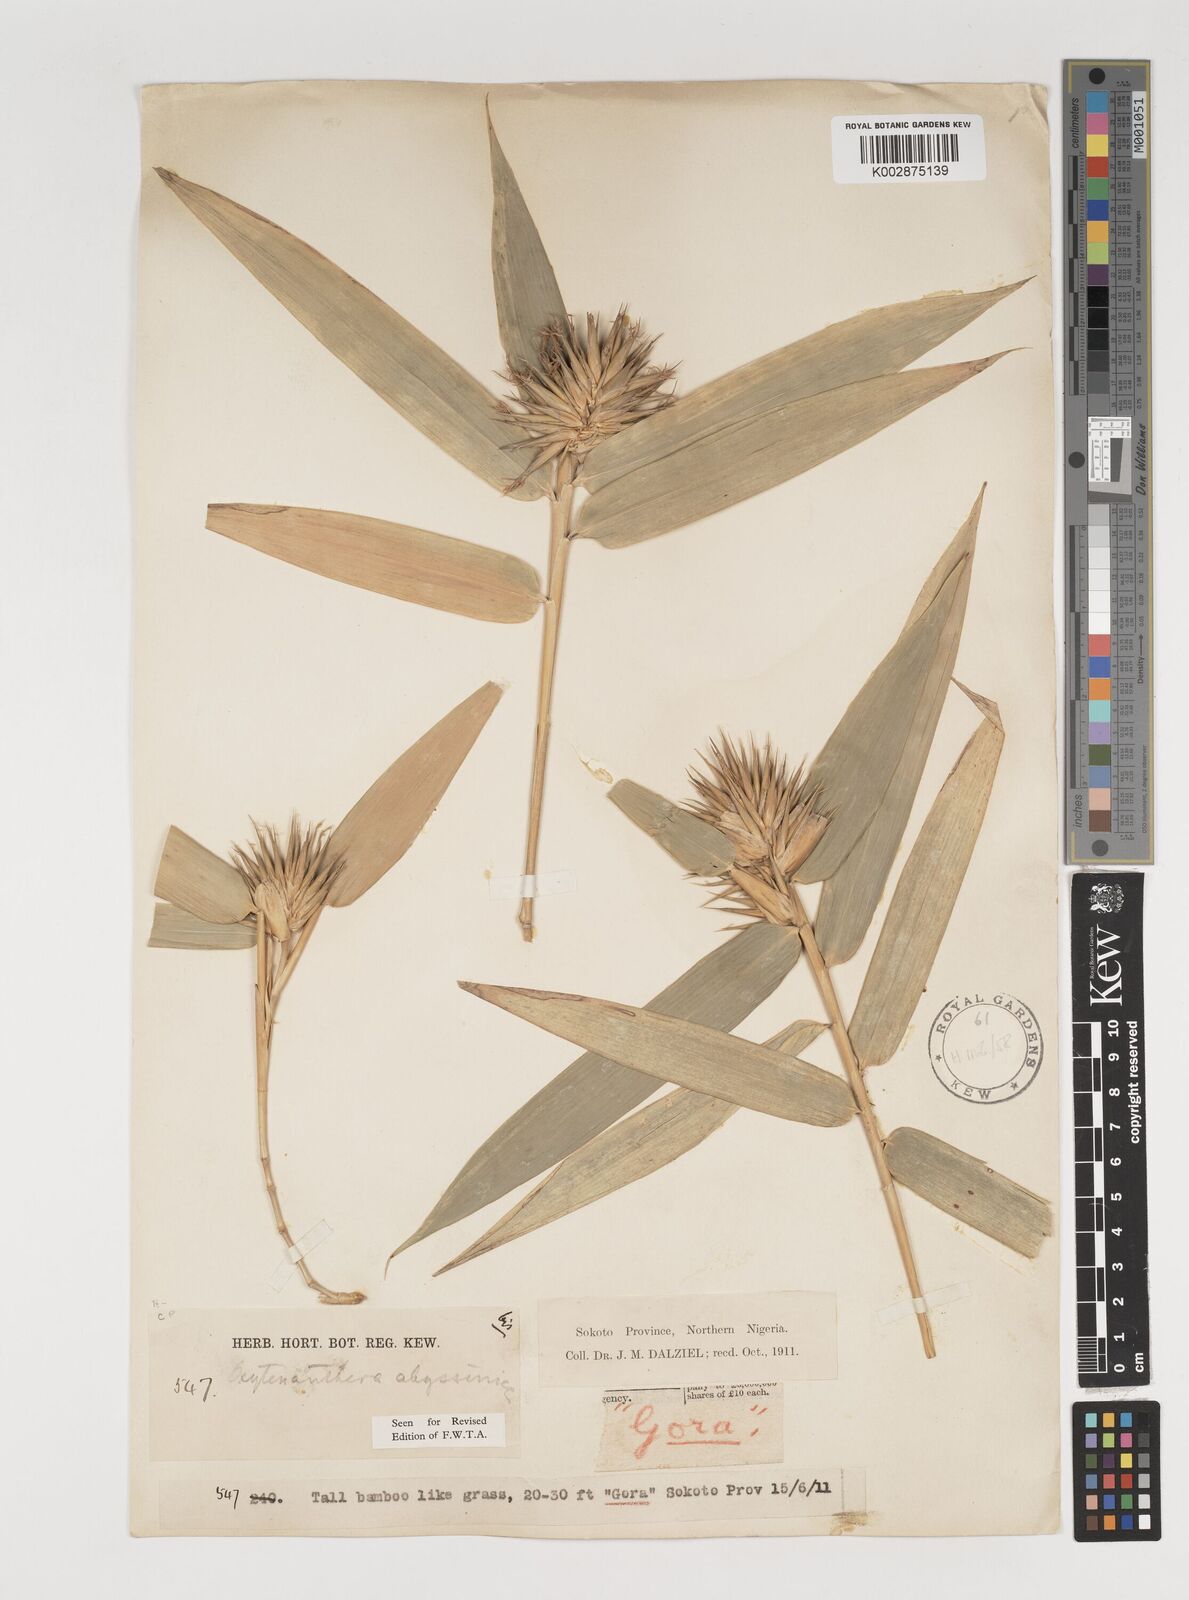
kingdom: Plantae
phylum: Tracheophyta
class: Liliopsida
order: Poales
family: Poaceae
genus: Oxytenanthera
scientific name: Oxytenanthera abyssinica
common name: Wine bamboo
